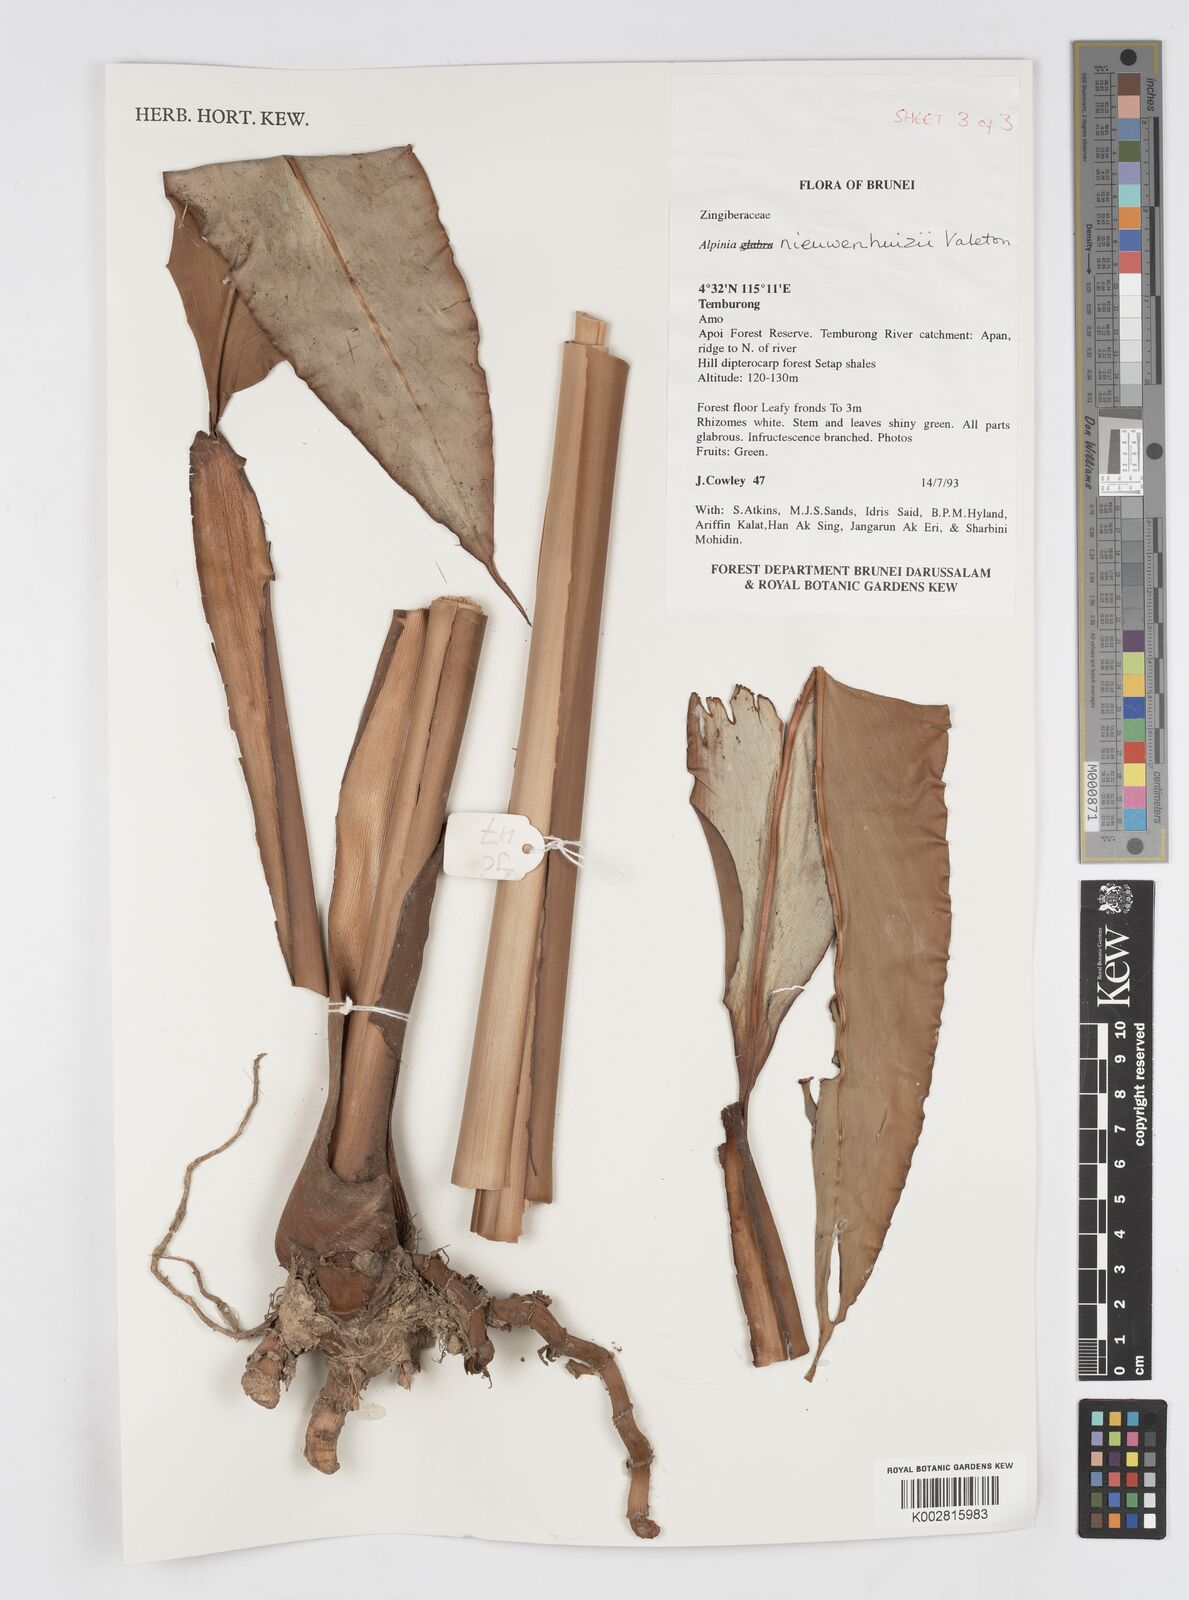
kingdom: Plantae
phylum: Tracheophyta
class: Liliopsida
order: Zingiberales
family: Zingiberaceae
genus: Alpinia
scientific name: Alpinia nieuwenhuizii
